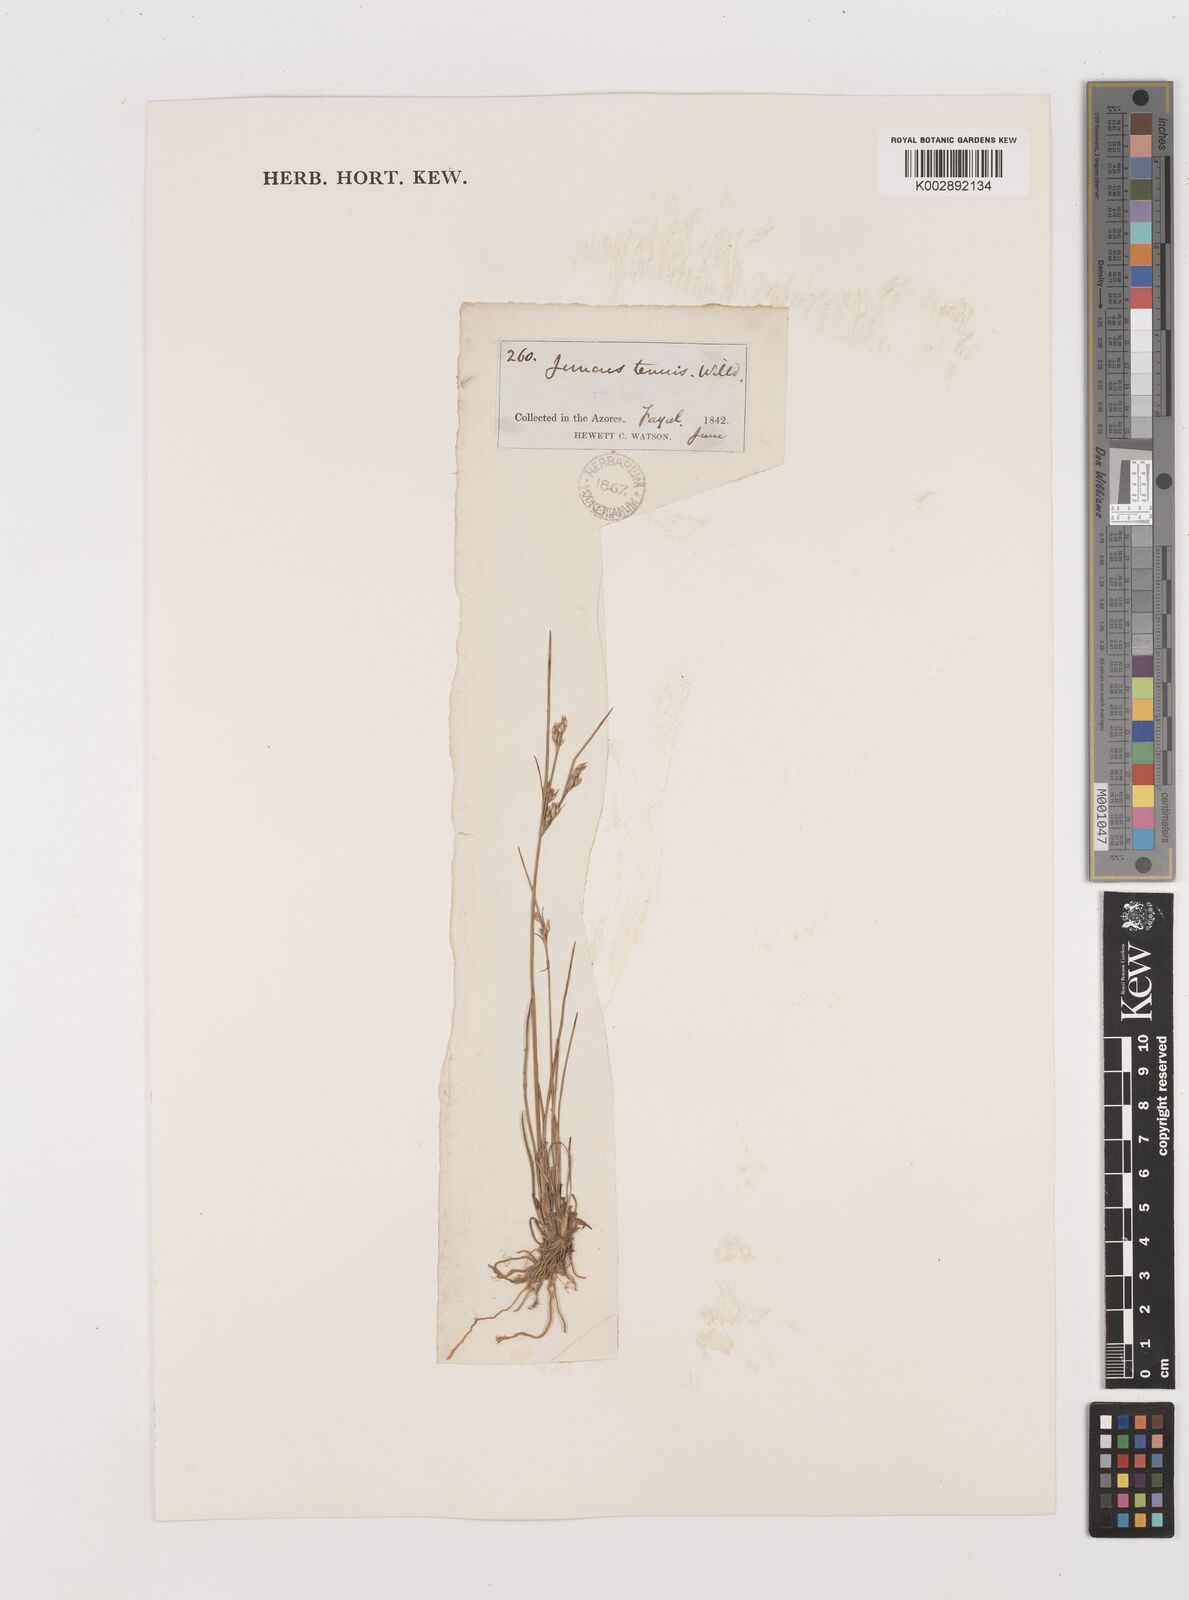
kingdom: Plantae
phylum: Tracheophyta
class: Liliopsida
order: Poales
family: Juncaceae
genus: Juncus
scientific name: Juncus tenuis
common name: Slender rush
